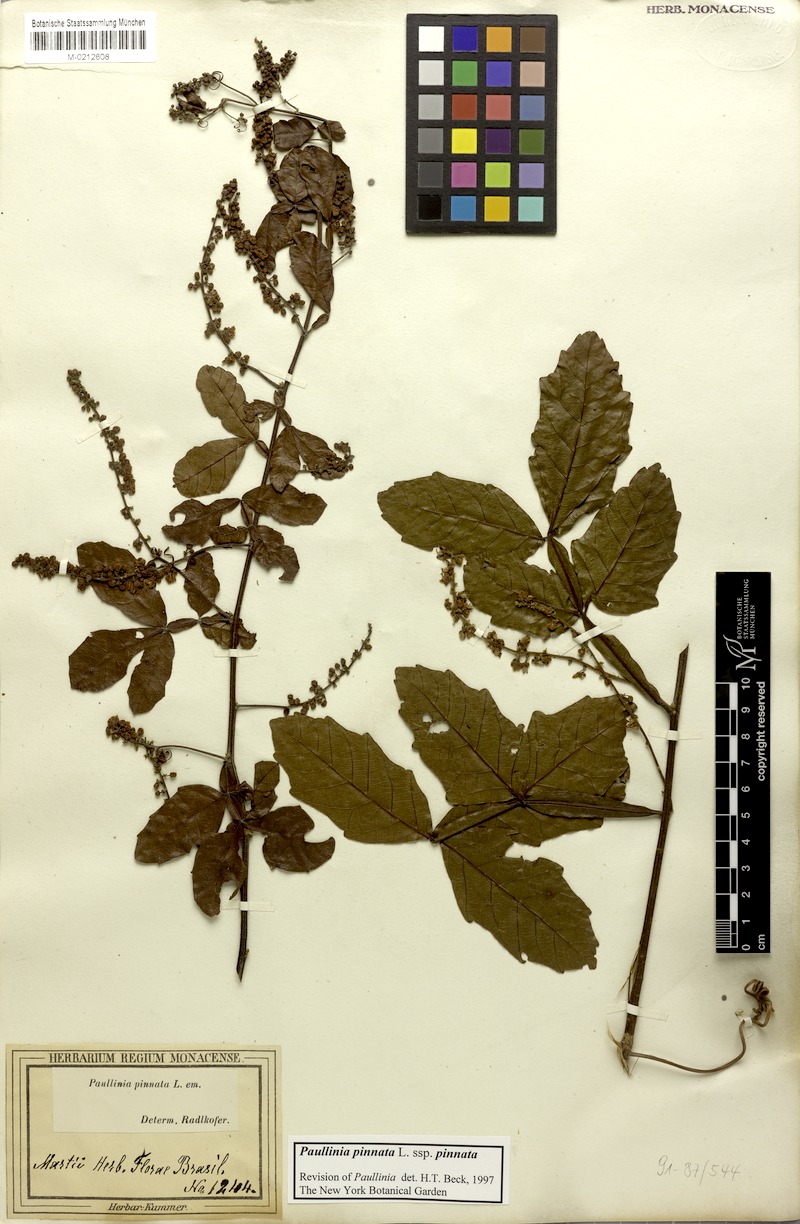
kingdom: Plantae
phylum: Tracheophyta
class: Magnoliopsida
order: Sapindales
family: Sapindaceae
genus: Paullinia
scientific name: Paullinia pinnata
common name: Barbasco
